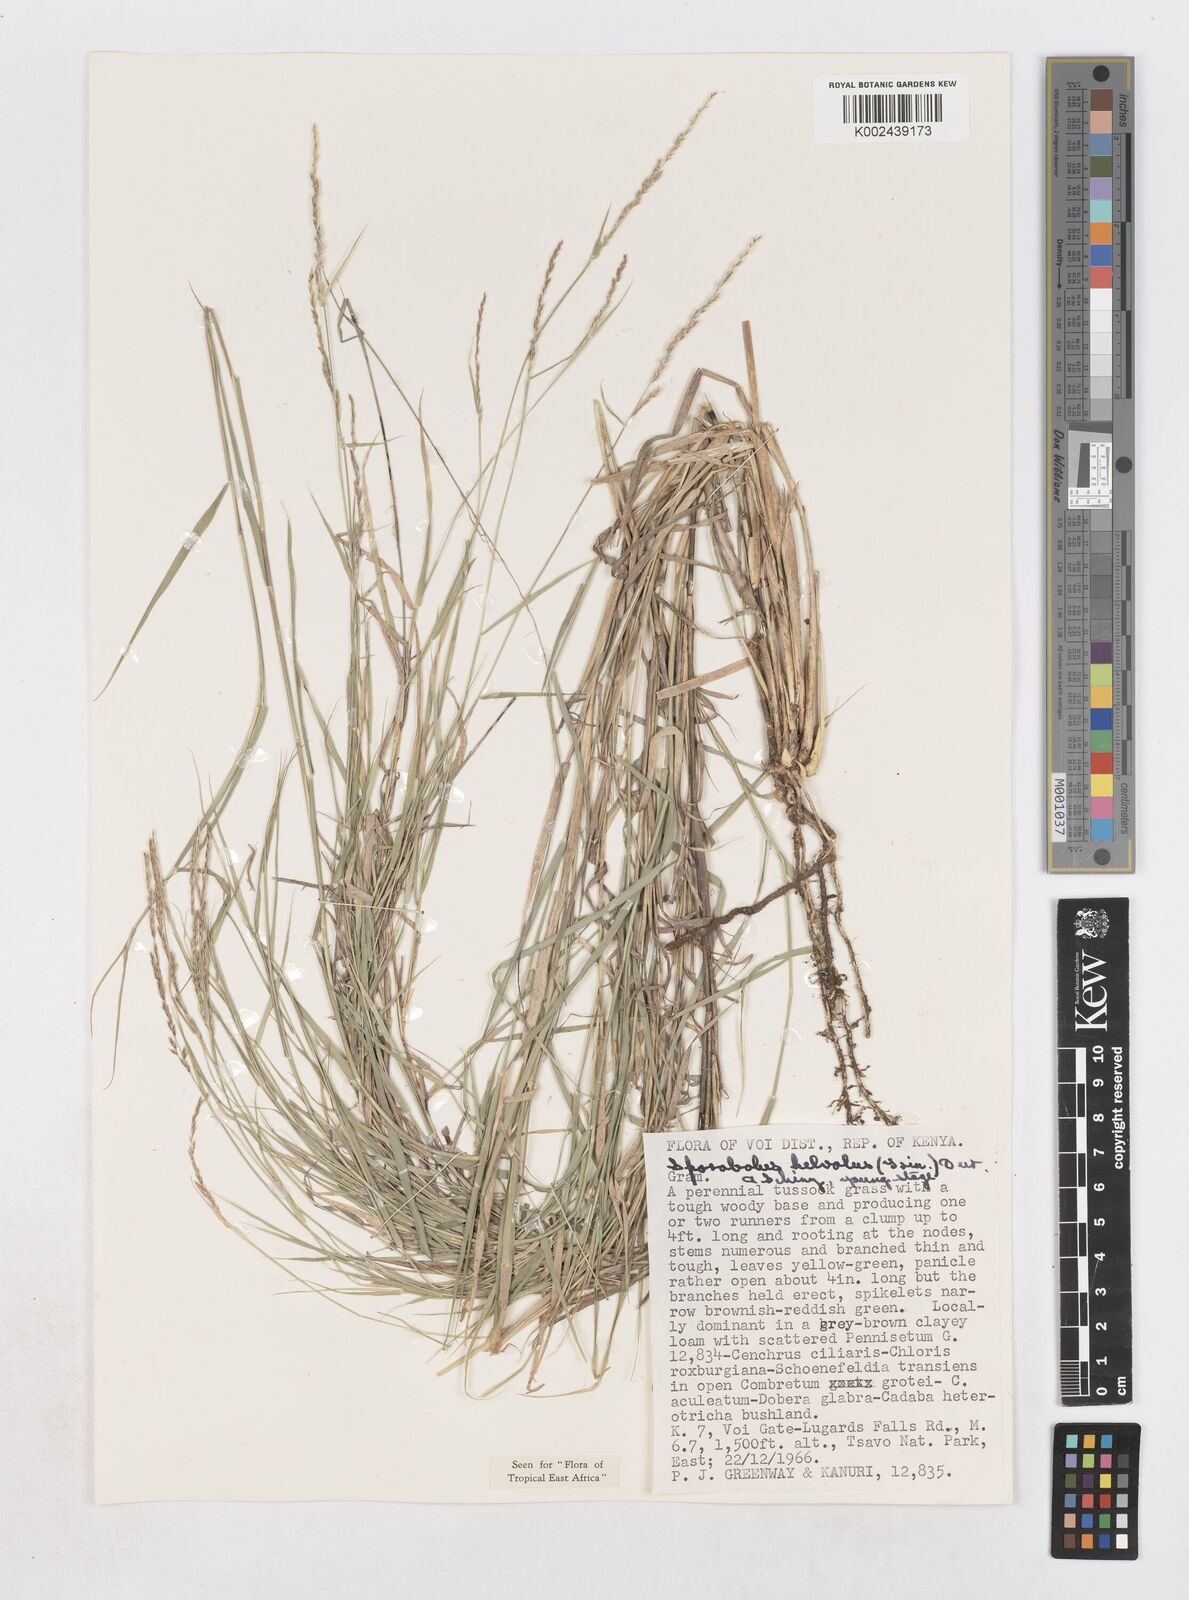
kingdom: Plantae
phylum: Tracheophyta
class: Liliopsida
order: Poales
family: Poaceae
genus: Sporobolus
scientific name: Sporobolus helvolus
